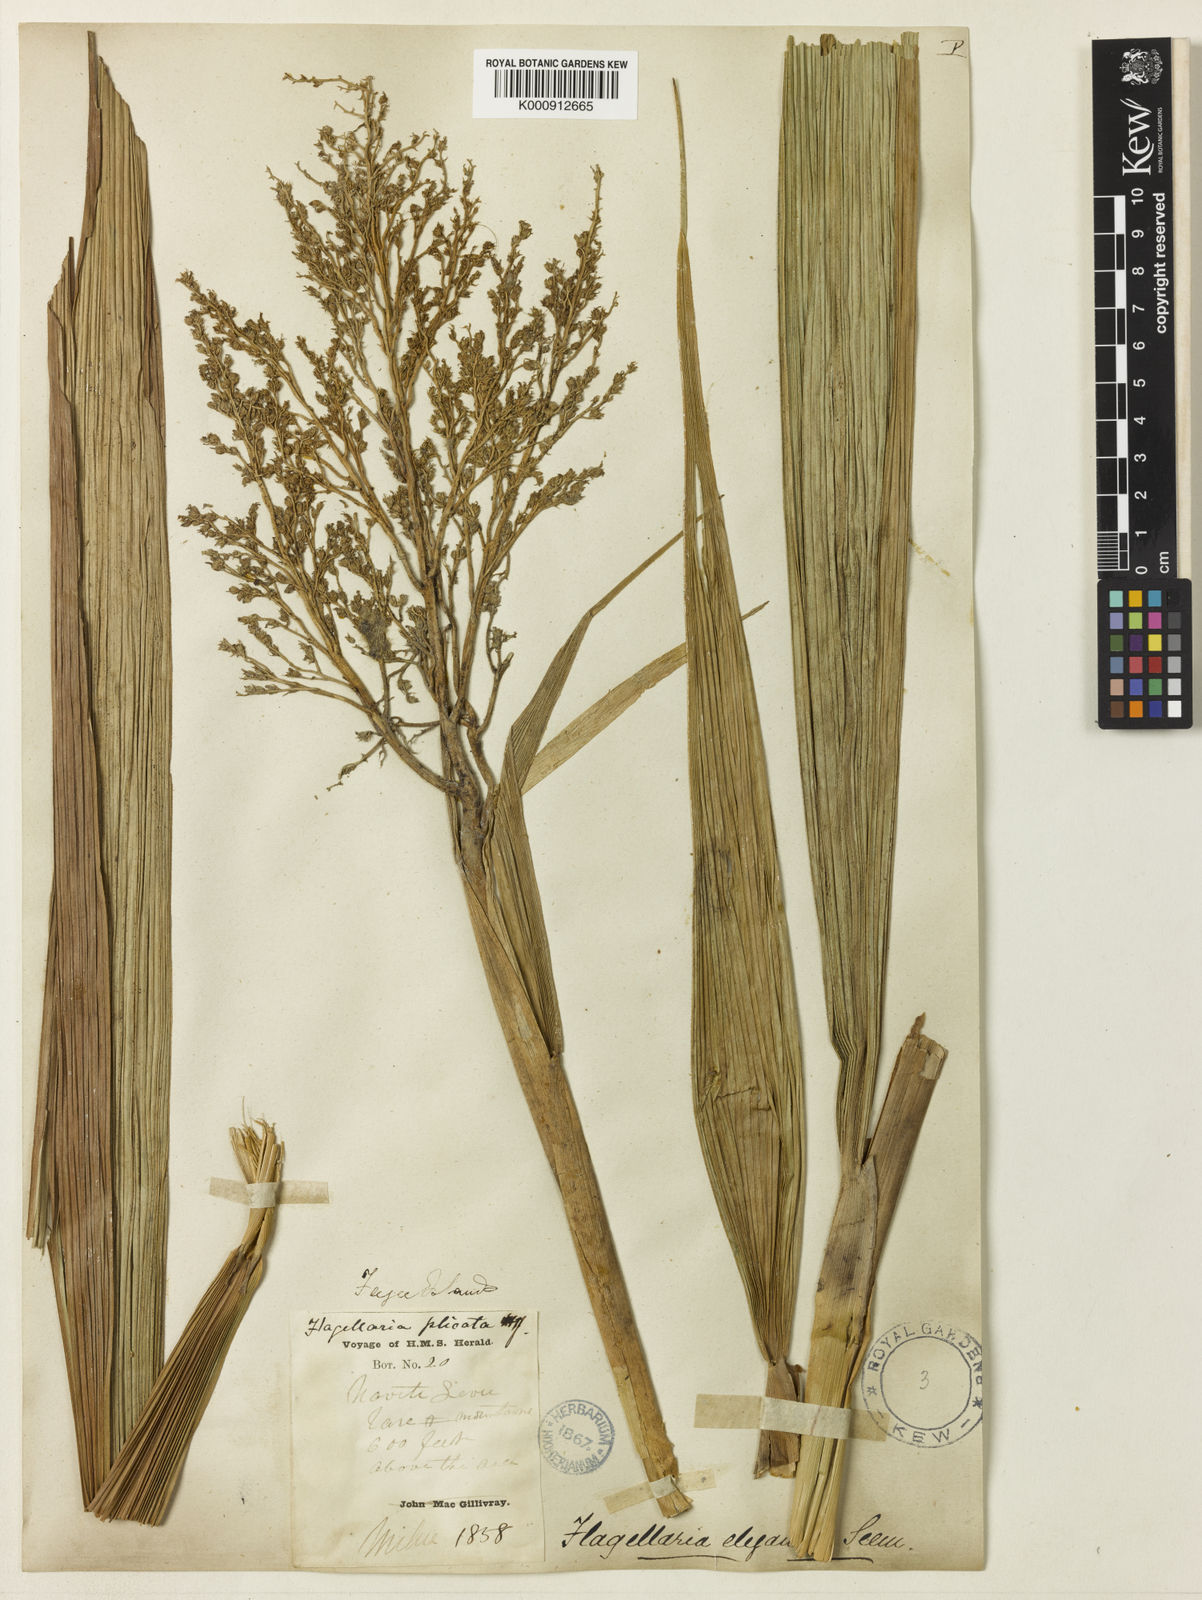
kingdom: Plantae
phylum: Tracheophyta
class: Liliopsida
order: Poales
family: Joinvilleaceae
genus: Joinvillea
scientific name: Joinvillea plicata
